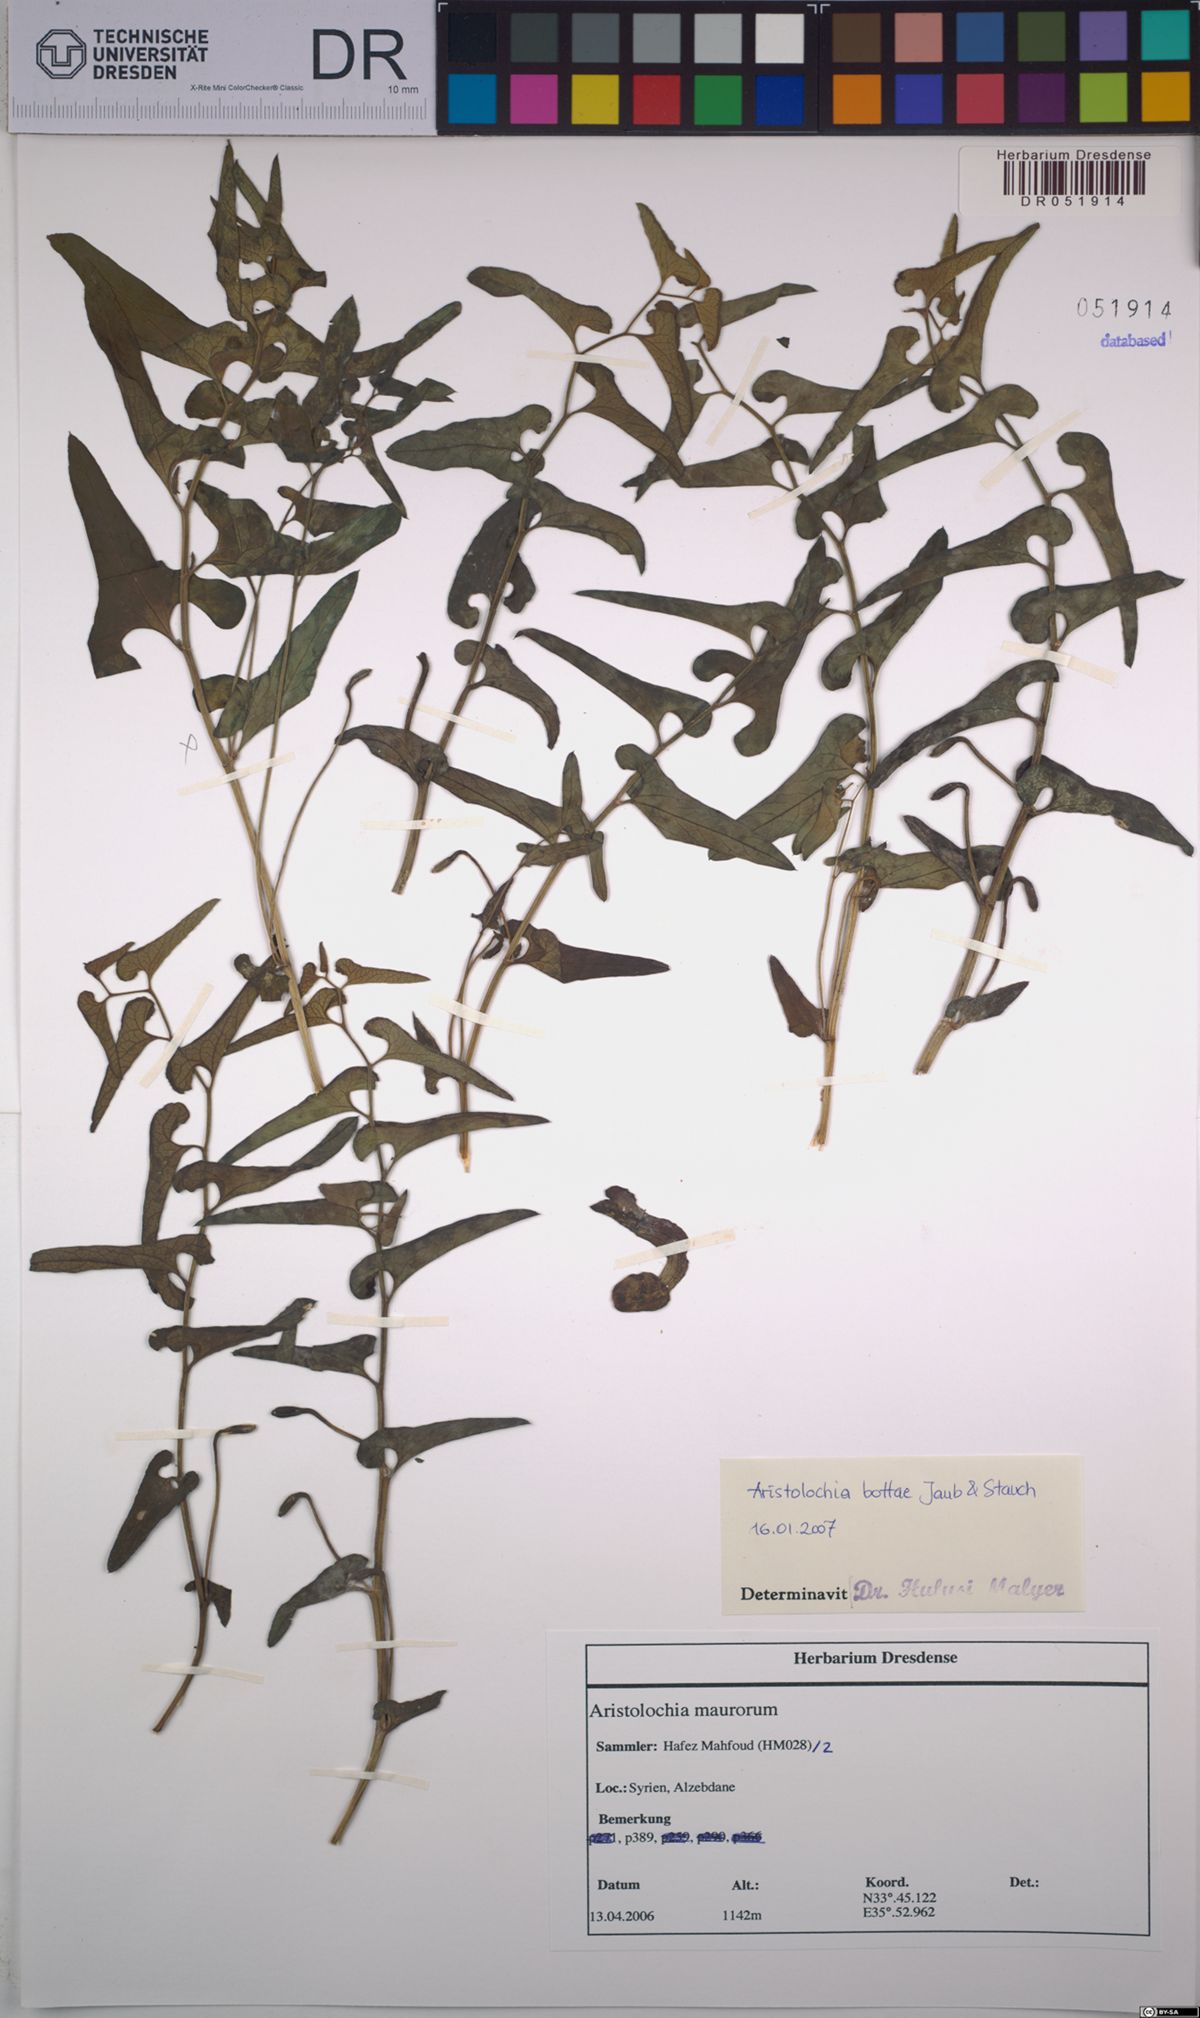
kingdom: Plantae
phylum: Tracheophyta
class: Magnoliopsida
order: Piperales
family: Aristolochiaceae
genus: Aristolochia
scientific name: Aristolochia bottae
